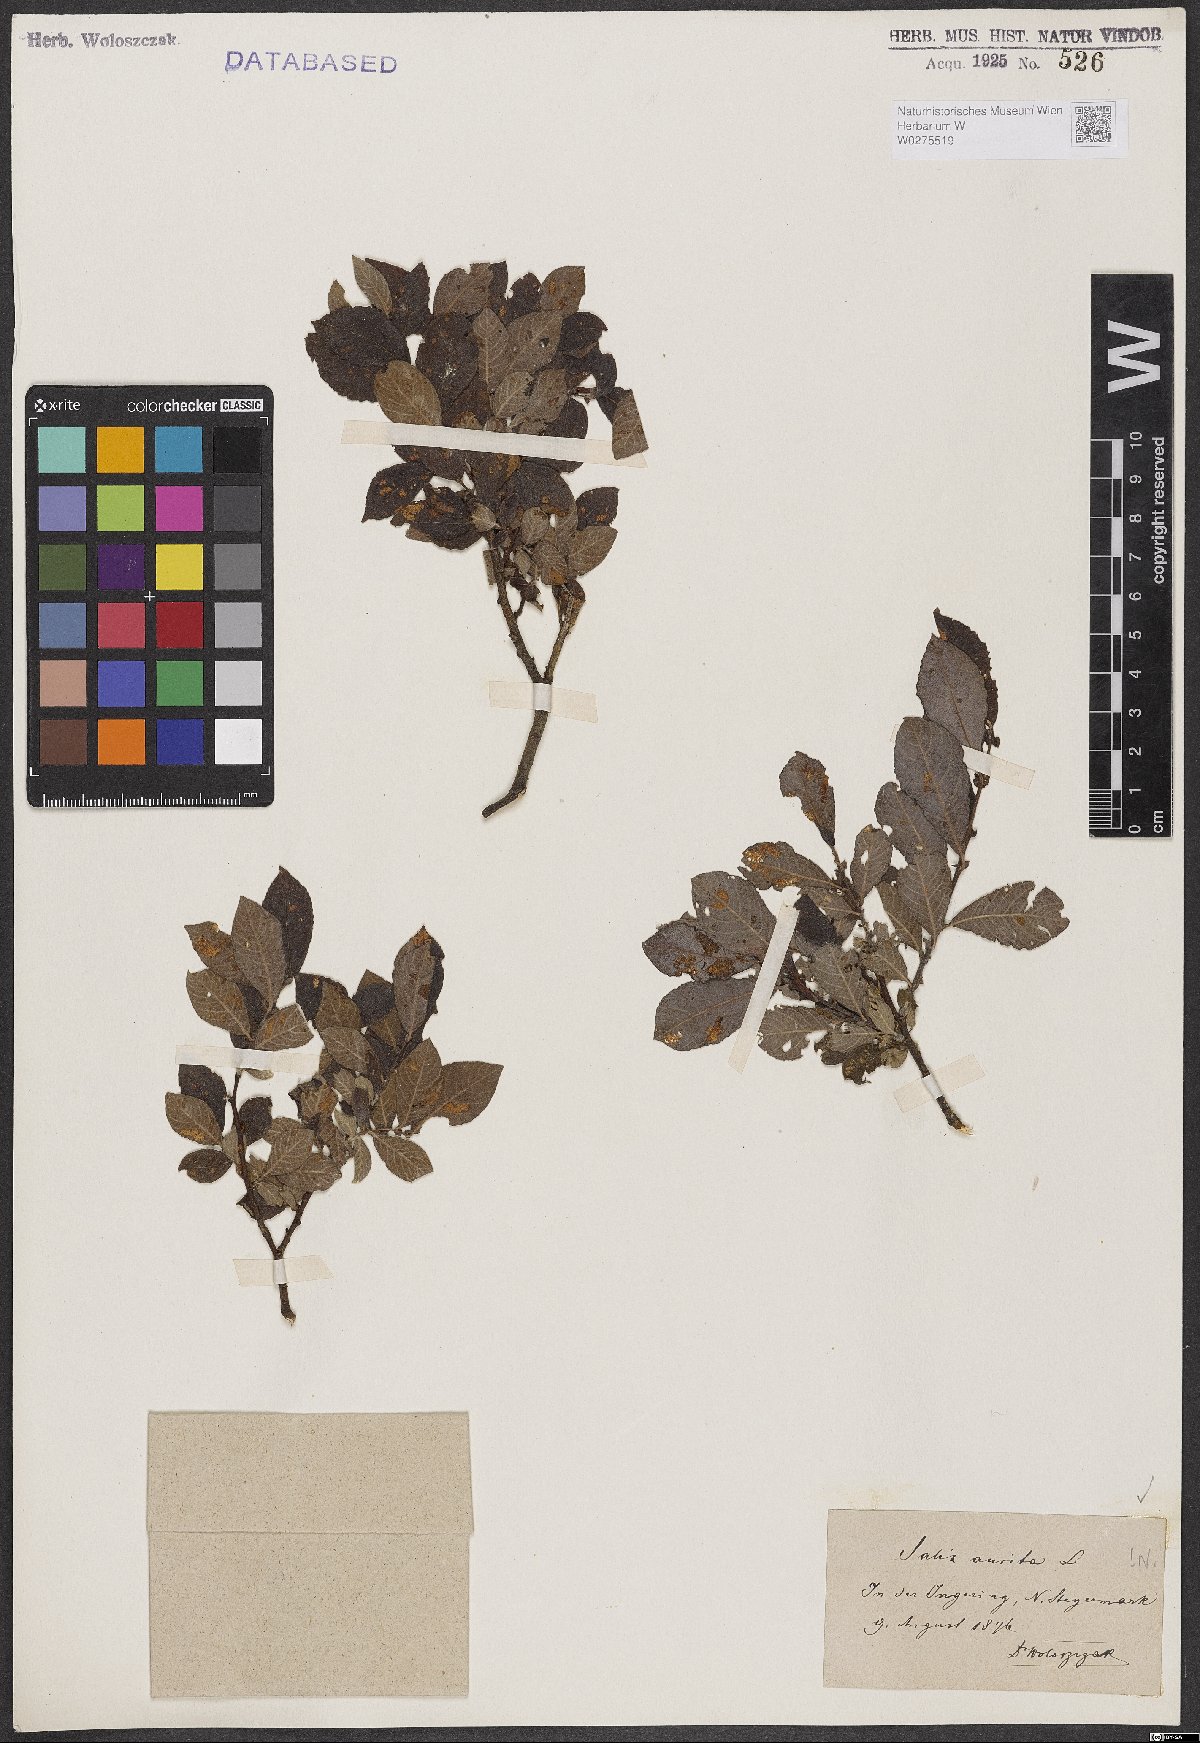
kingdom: Plantae
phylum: Tracheophyta
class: Magnoliopsida
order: Malpighiales
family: Salicaceae
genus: Salix
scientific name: Salix aurita
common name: Eared willow
